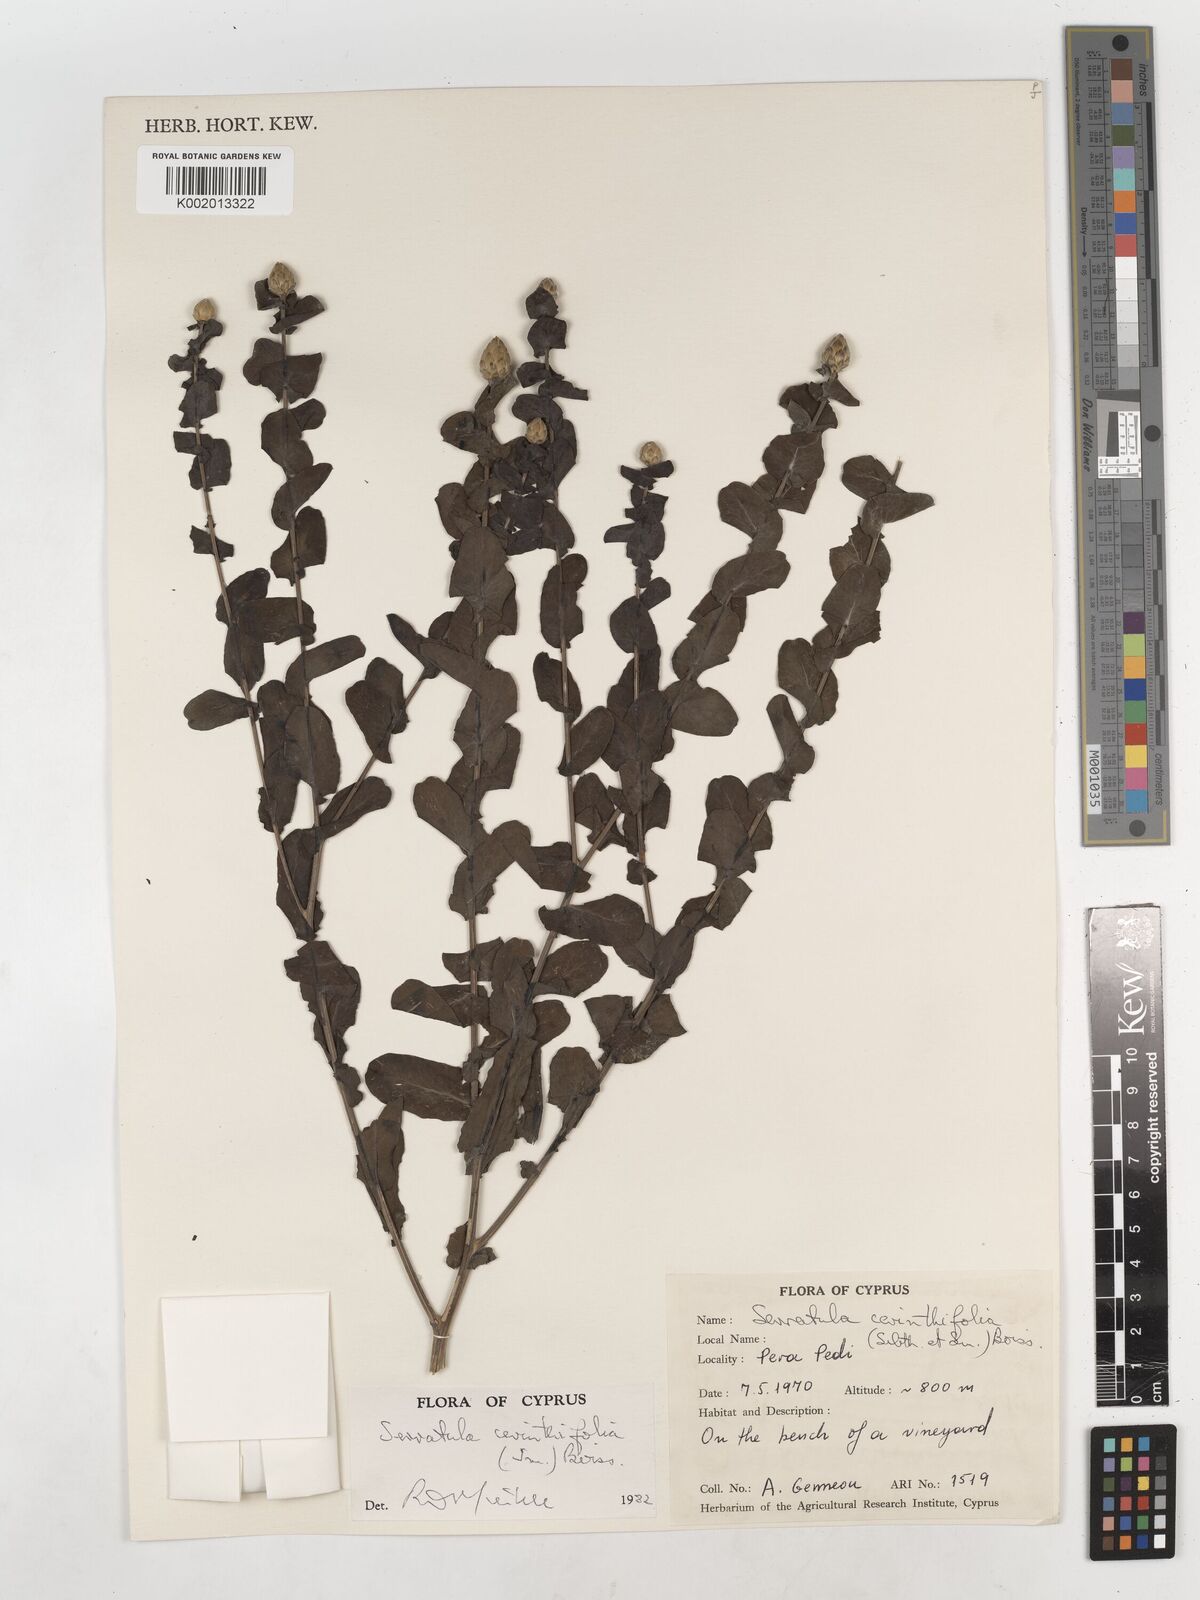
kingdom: Plantae
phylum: Tracheophyta
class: Magnoliopsida
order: Asterales
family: Asteraceae
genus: Klasea
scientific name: Klasea cerinthifolia
